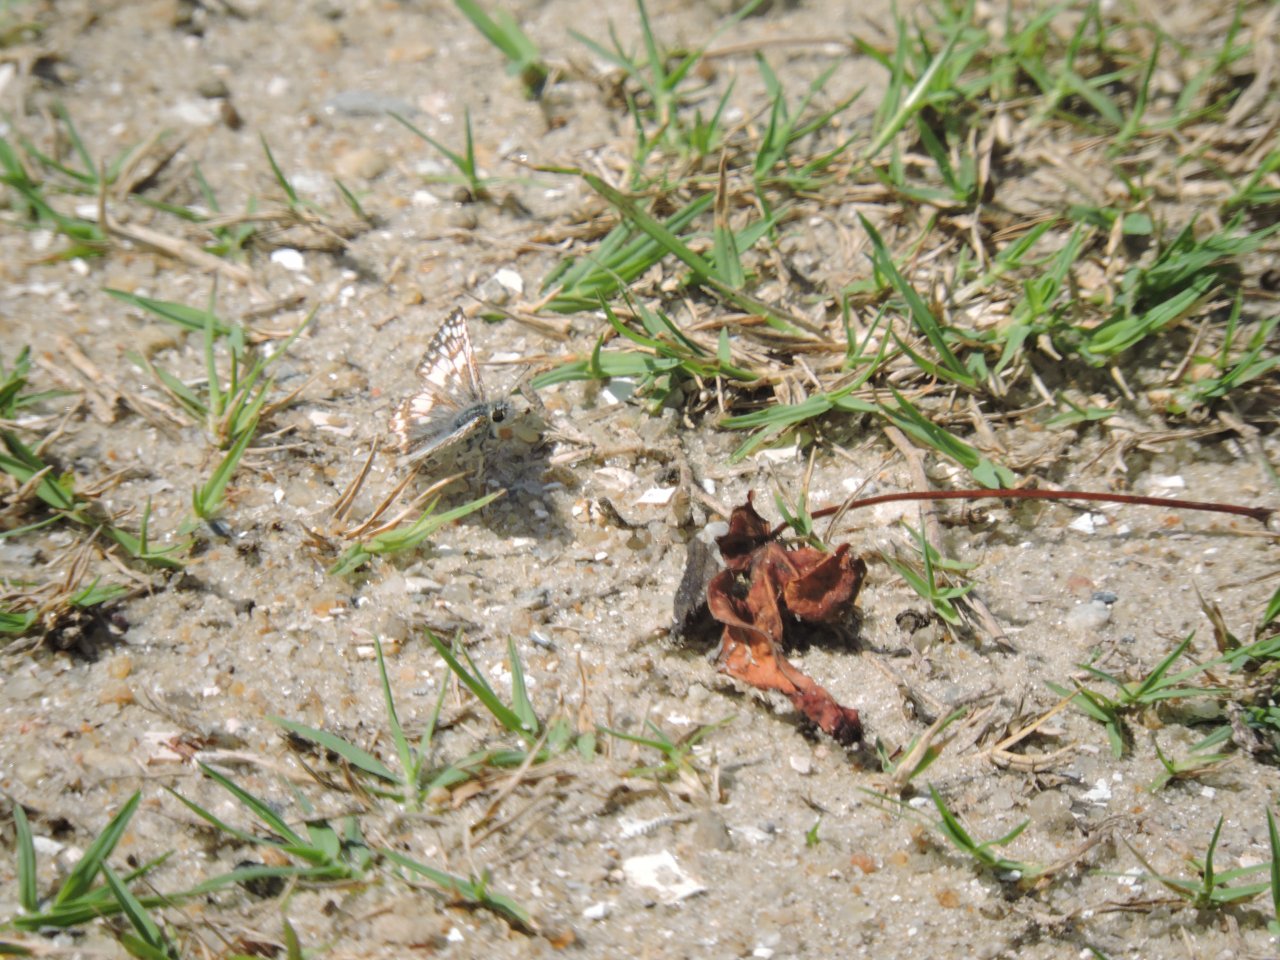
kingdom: Animalia
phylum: Arthropoda
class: Insecta
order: Lepidoptera
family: Hesperiidae
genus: Pyrgus
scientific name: Pyrgus communis
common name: Common Checkered-Skipper
